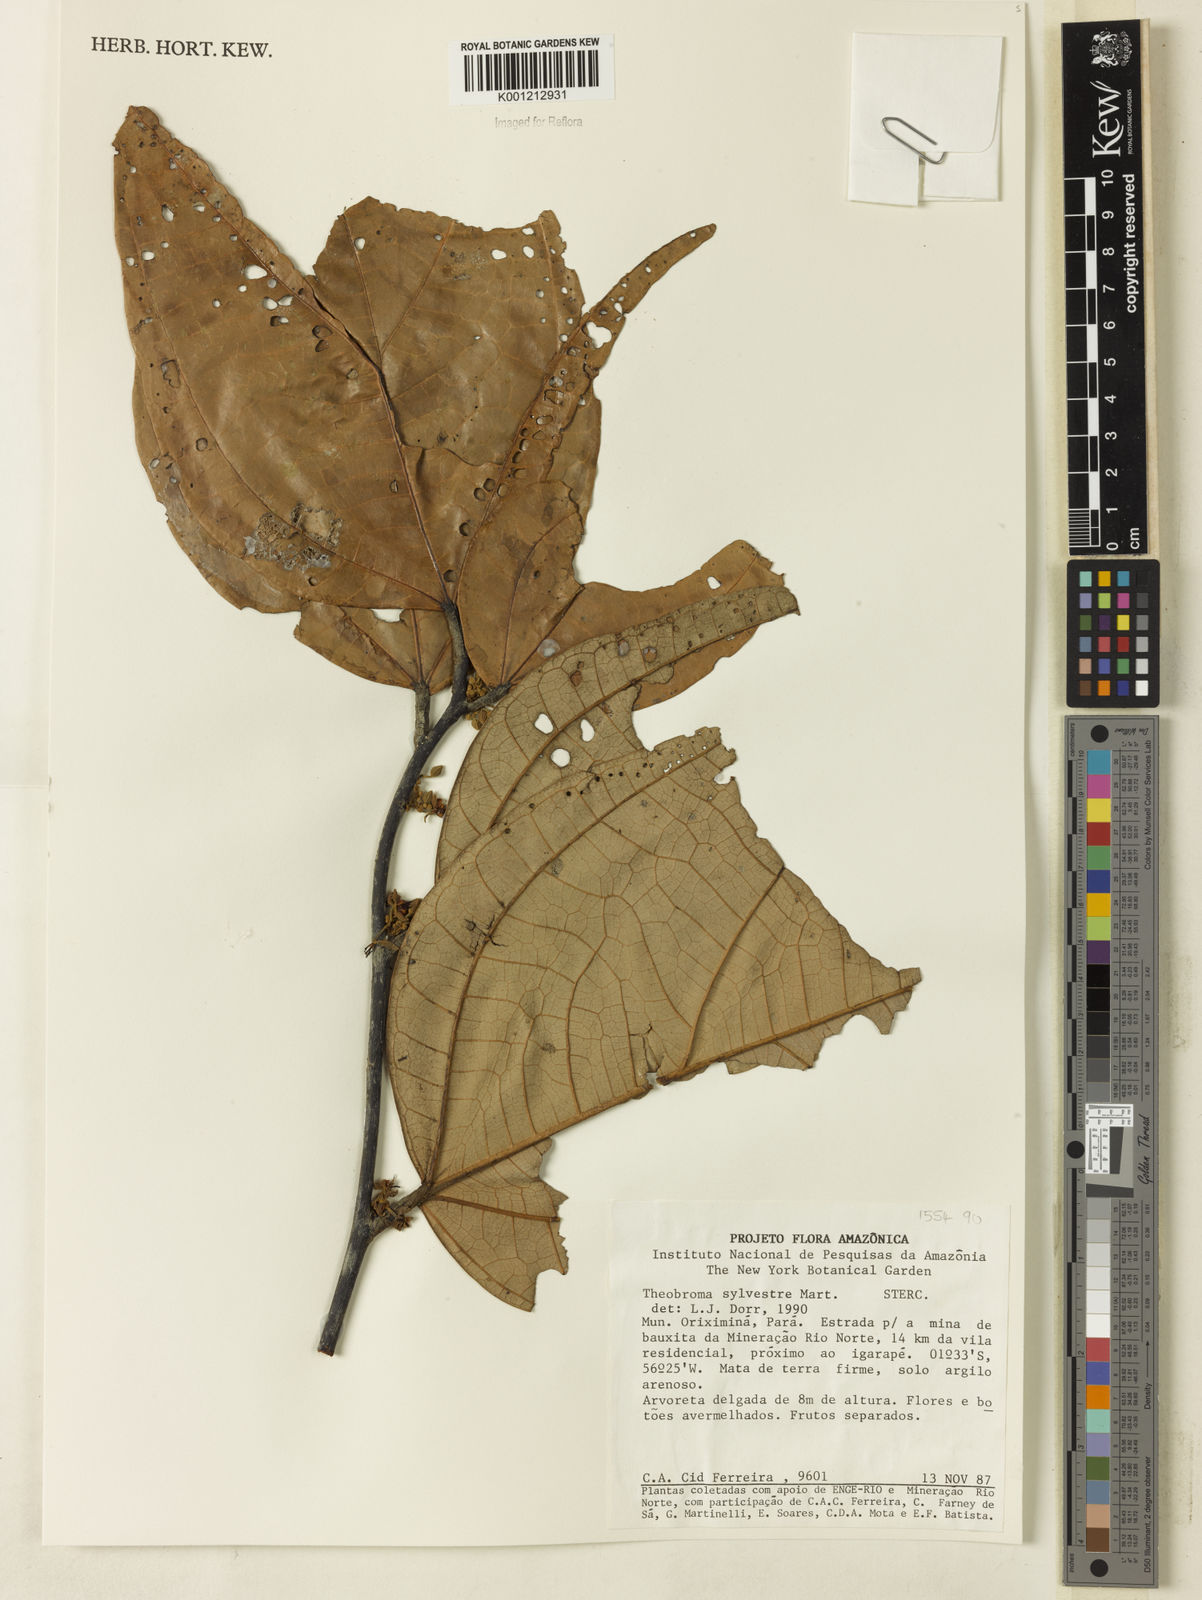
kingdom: Plantae
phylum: Tracheophyta
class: Magnoliopsida
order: Malvales
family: Malvaceae
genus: Theobroma
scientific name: Theobroma sylvestre
